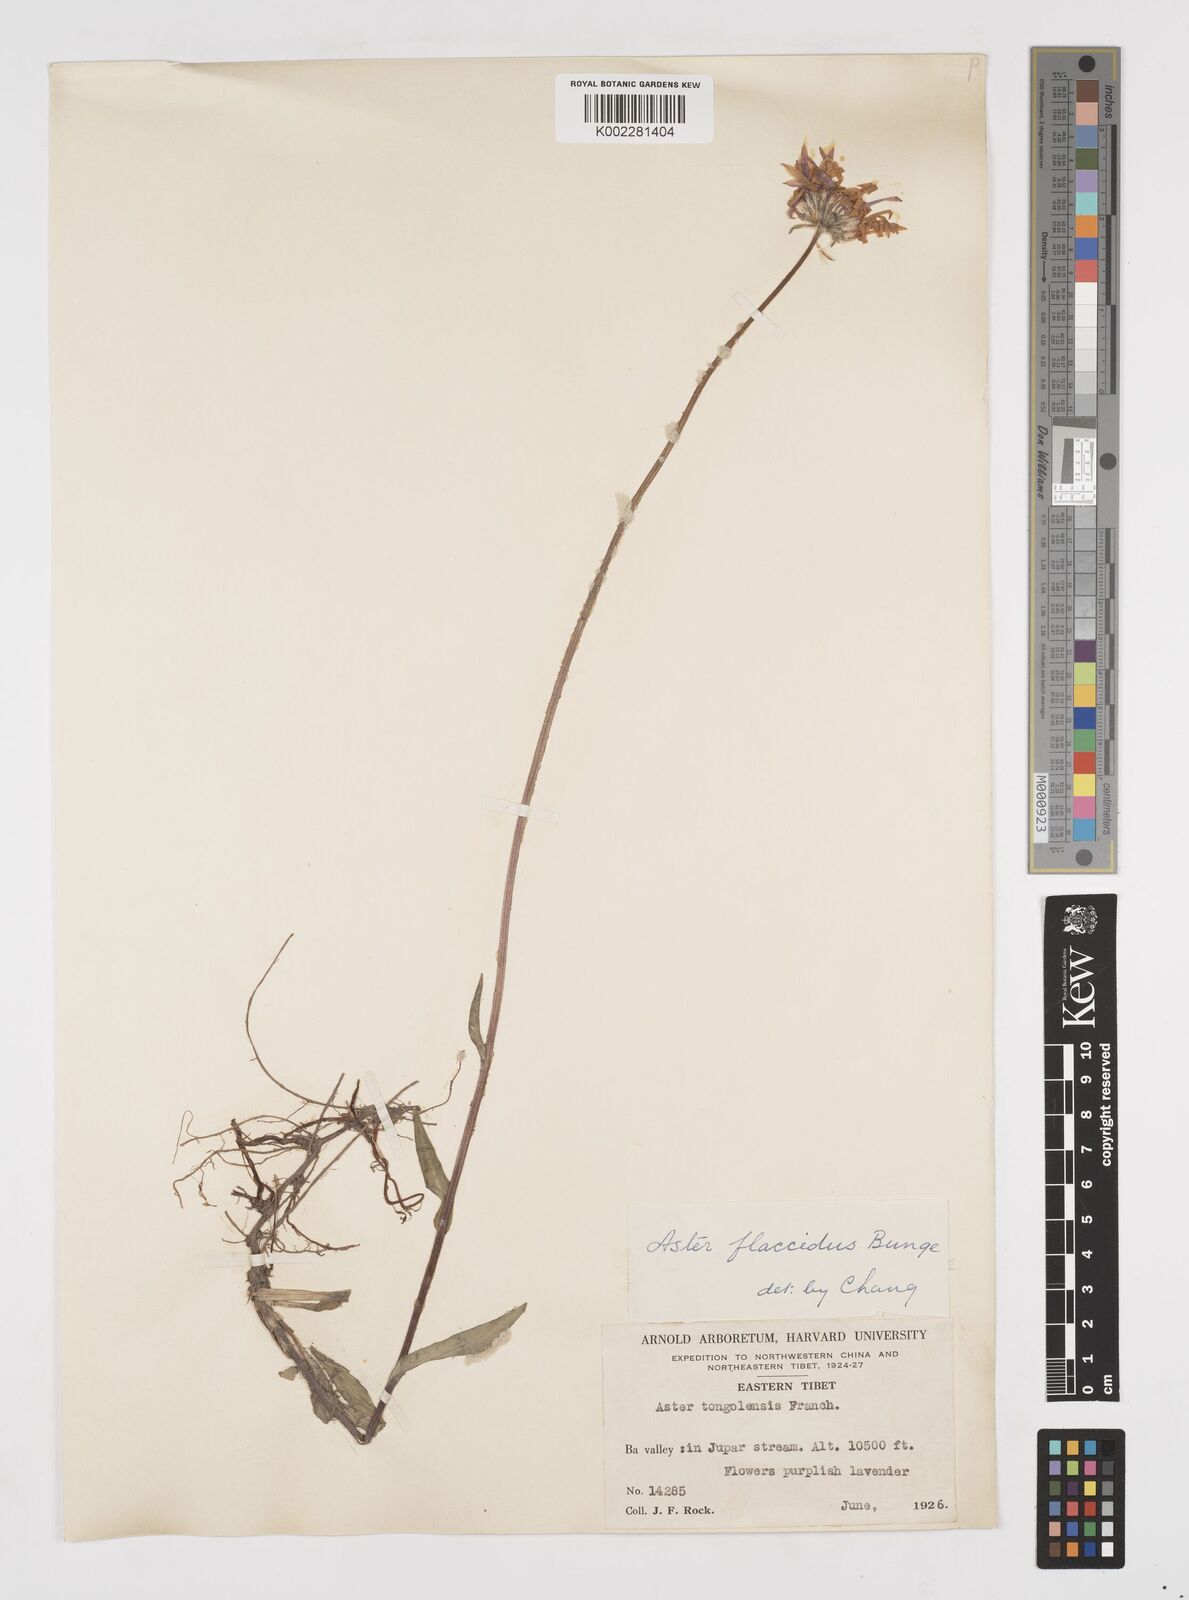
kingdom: Plantae
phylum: Tracheophyta
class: Magnoliopsida
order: Asterales
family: Asteraceae
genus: Tibetiodes
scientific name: Tibetiodes flaccida
